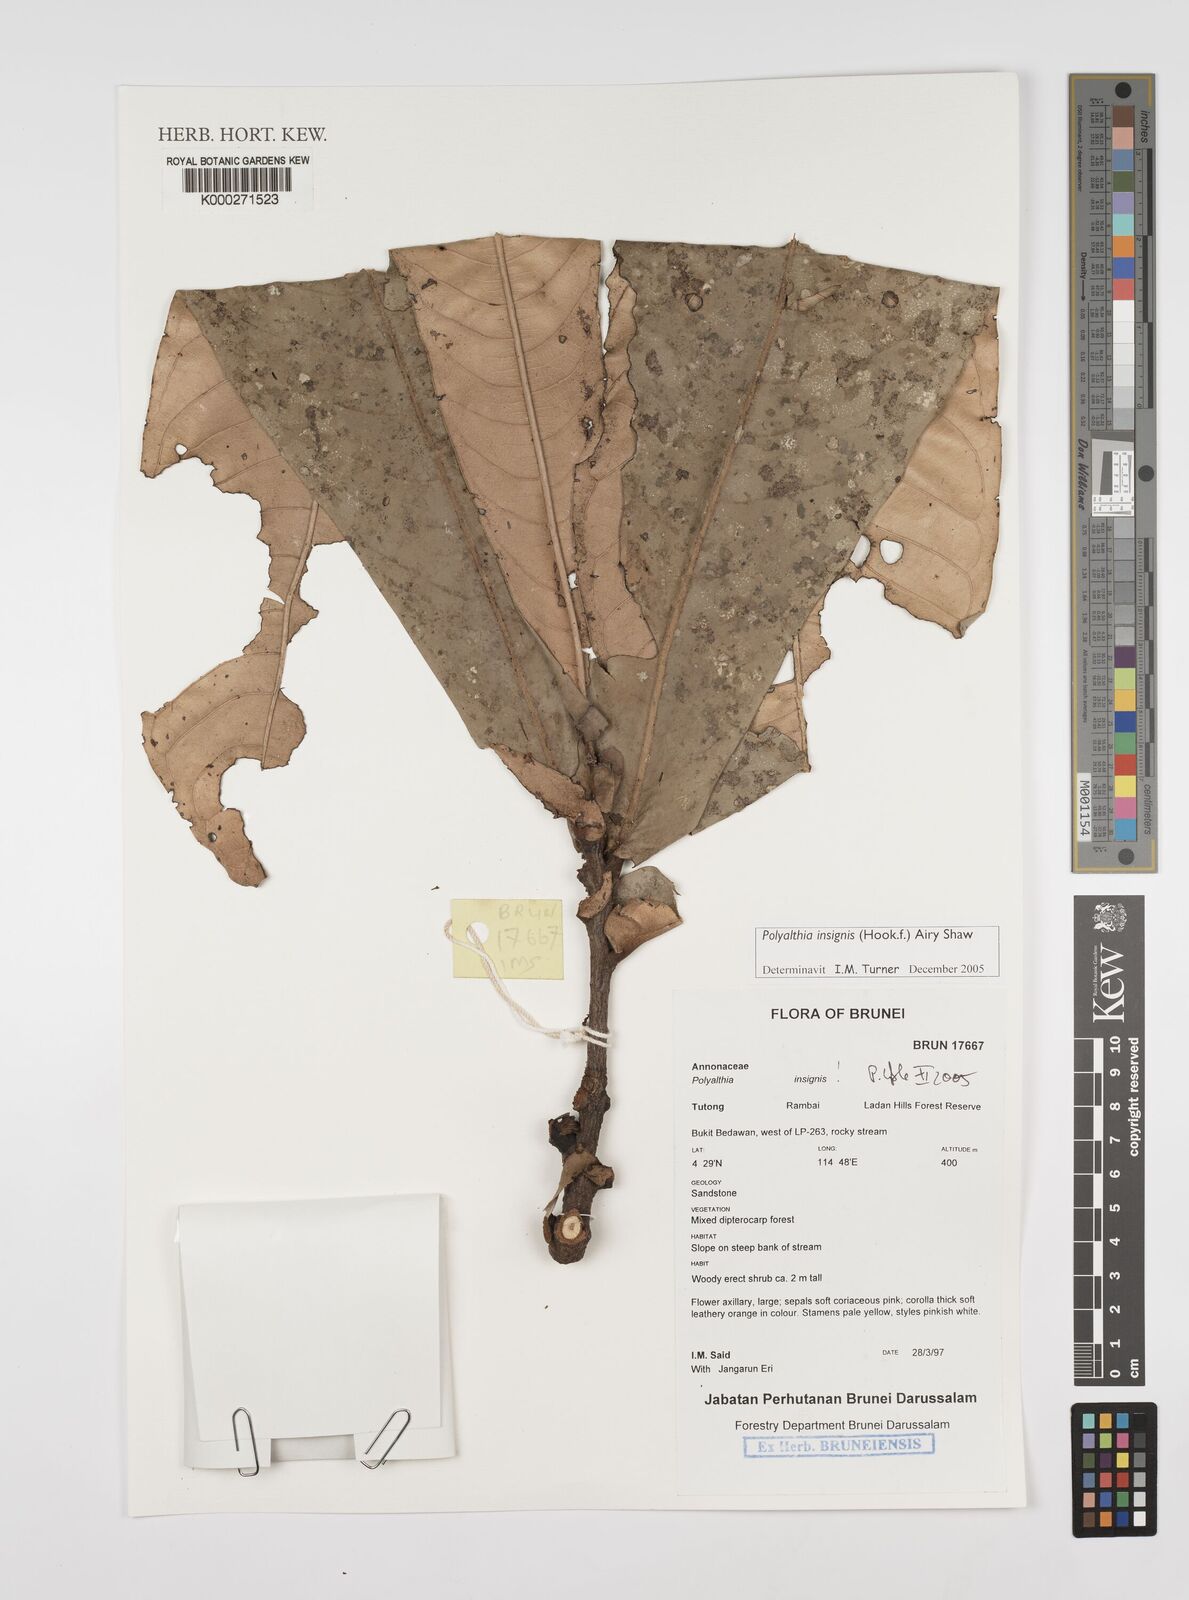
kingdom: Plantae
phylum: Tracheophyta
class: Magnoliopsida
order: Magnoliales
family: Annonaceae
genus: Polyalthia
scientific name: Polyalthia insignis
